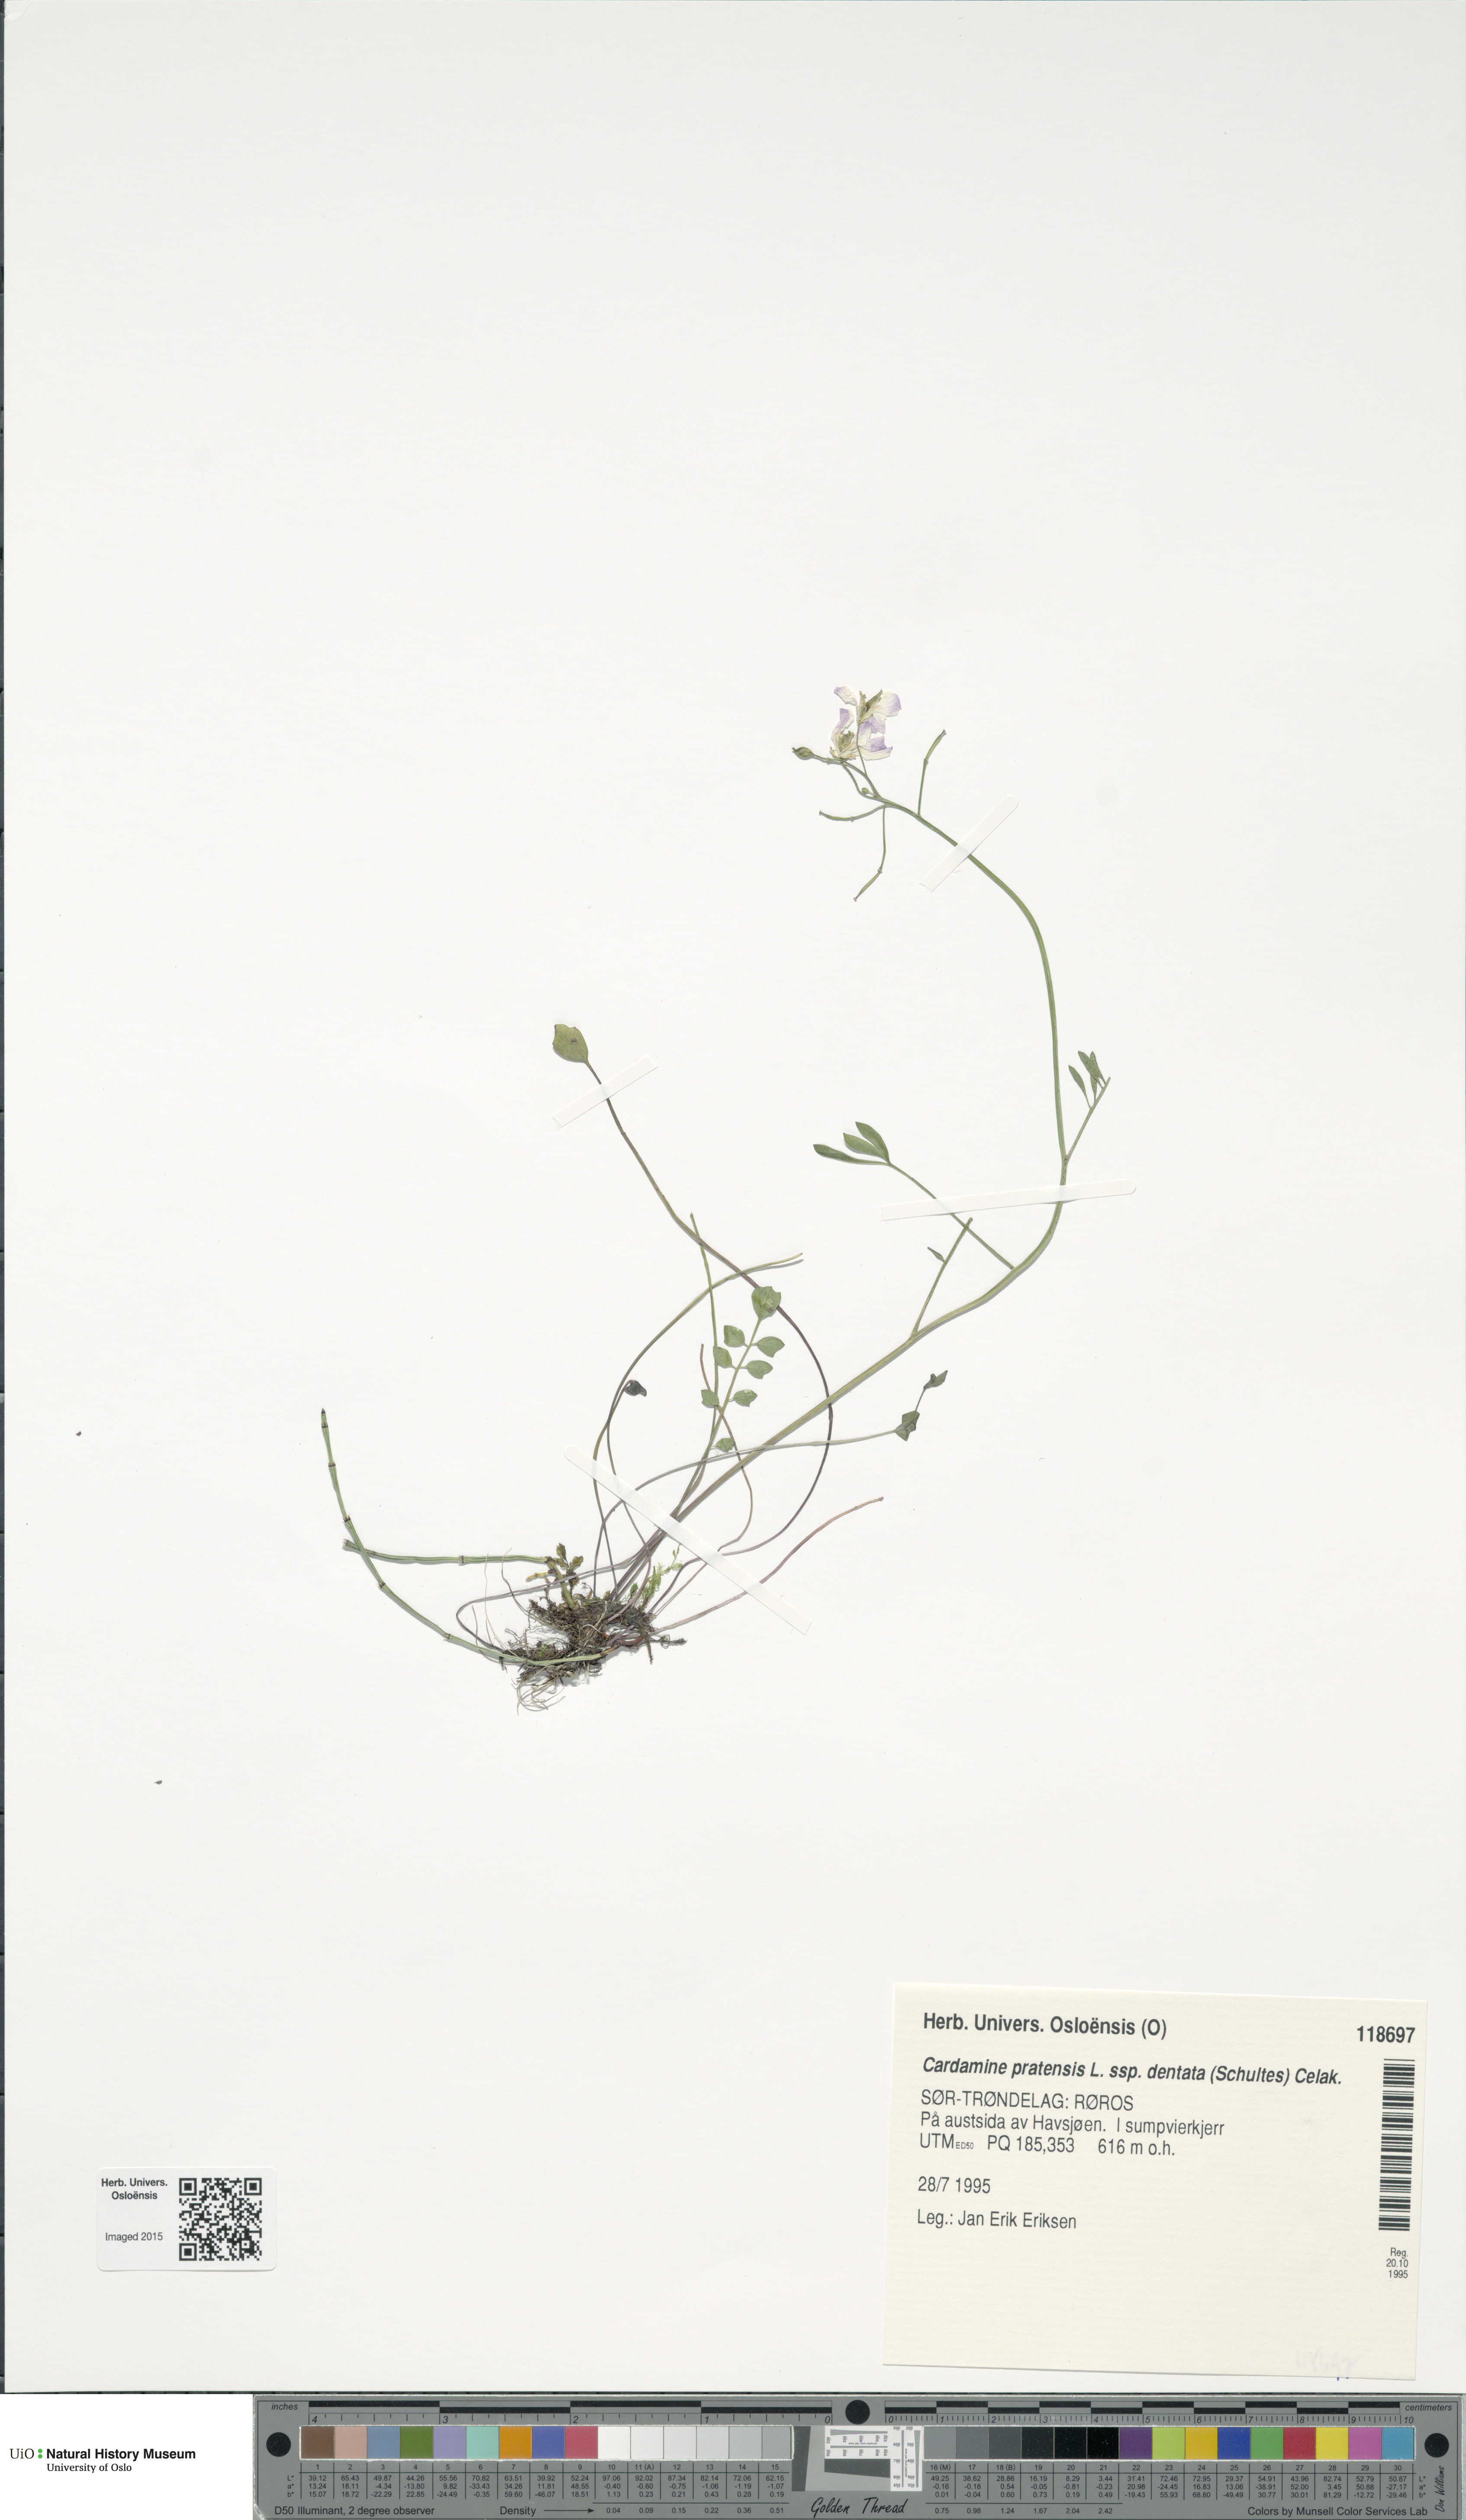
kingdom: Plantae
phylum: Tracheophyta
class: Magnoliopsida
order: Brassicales
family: Brassicaceae
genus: Cardamine
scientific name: Cardamine dentata
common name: Toothed bittercress
